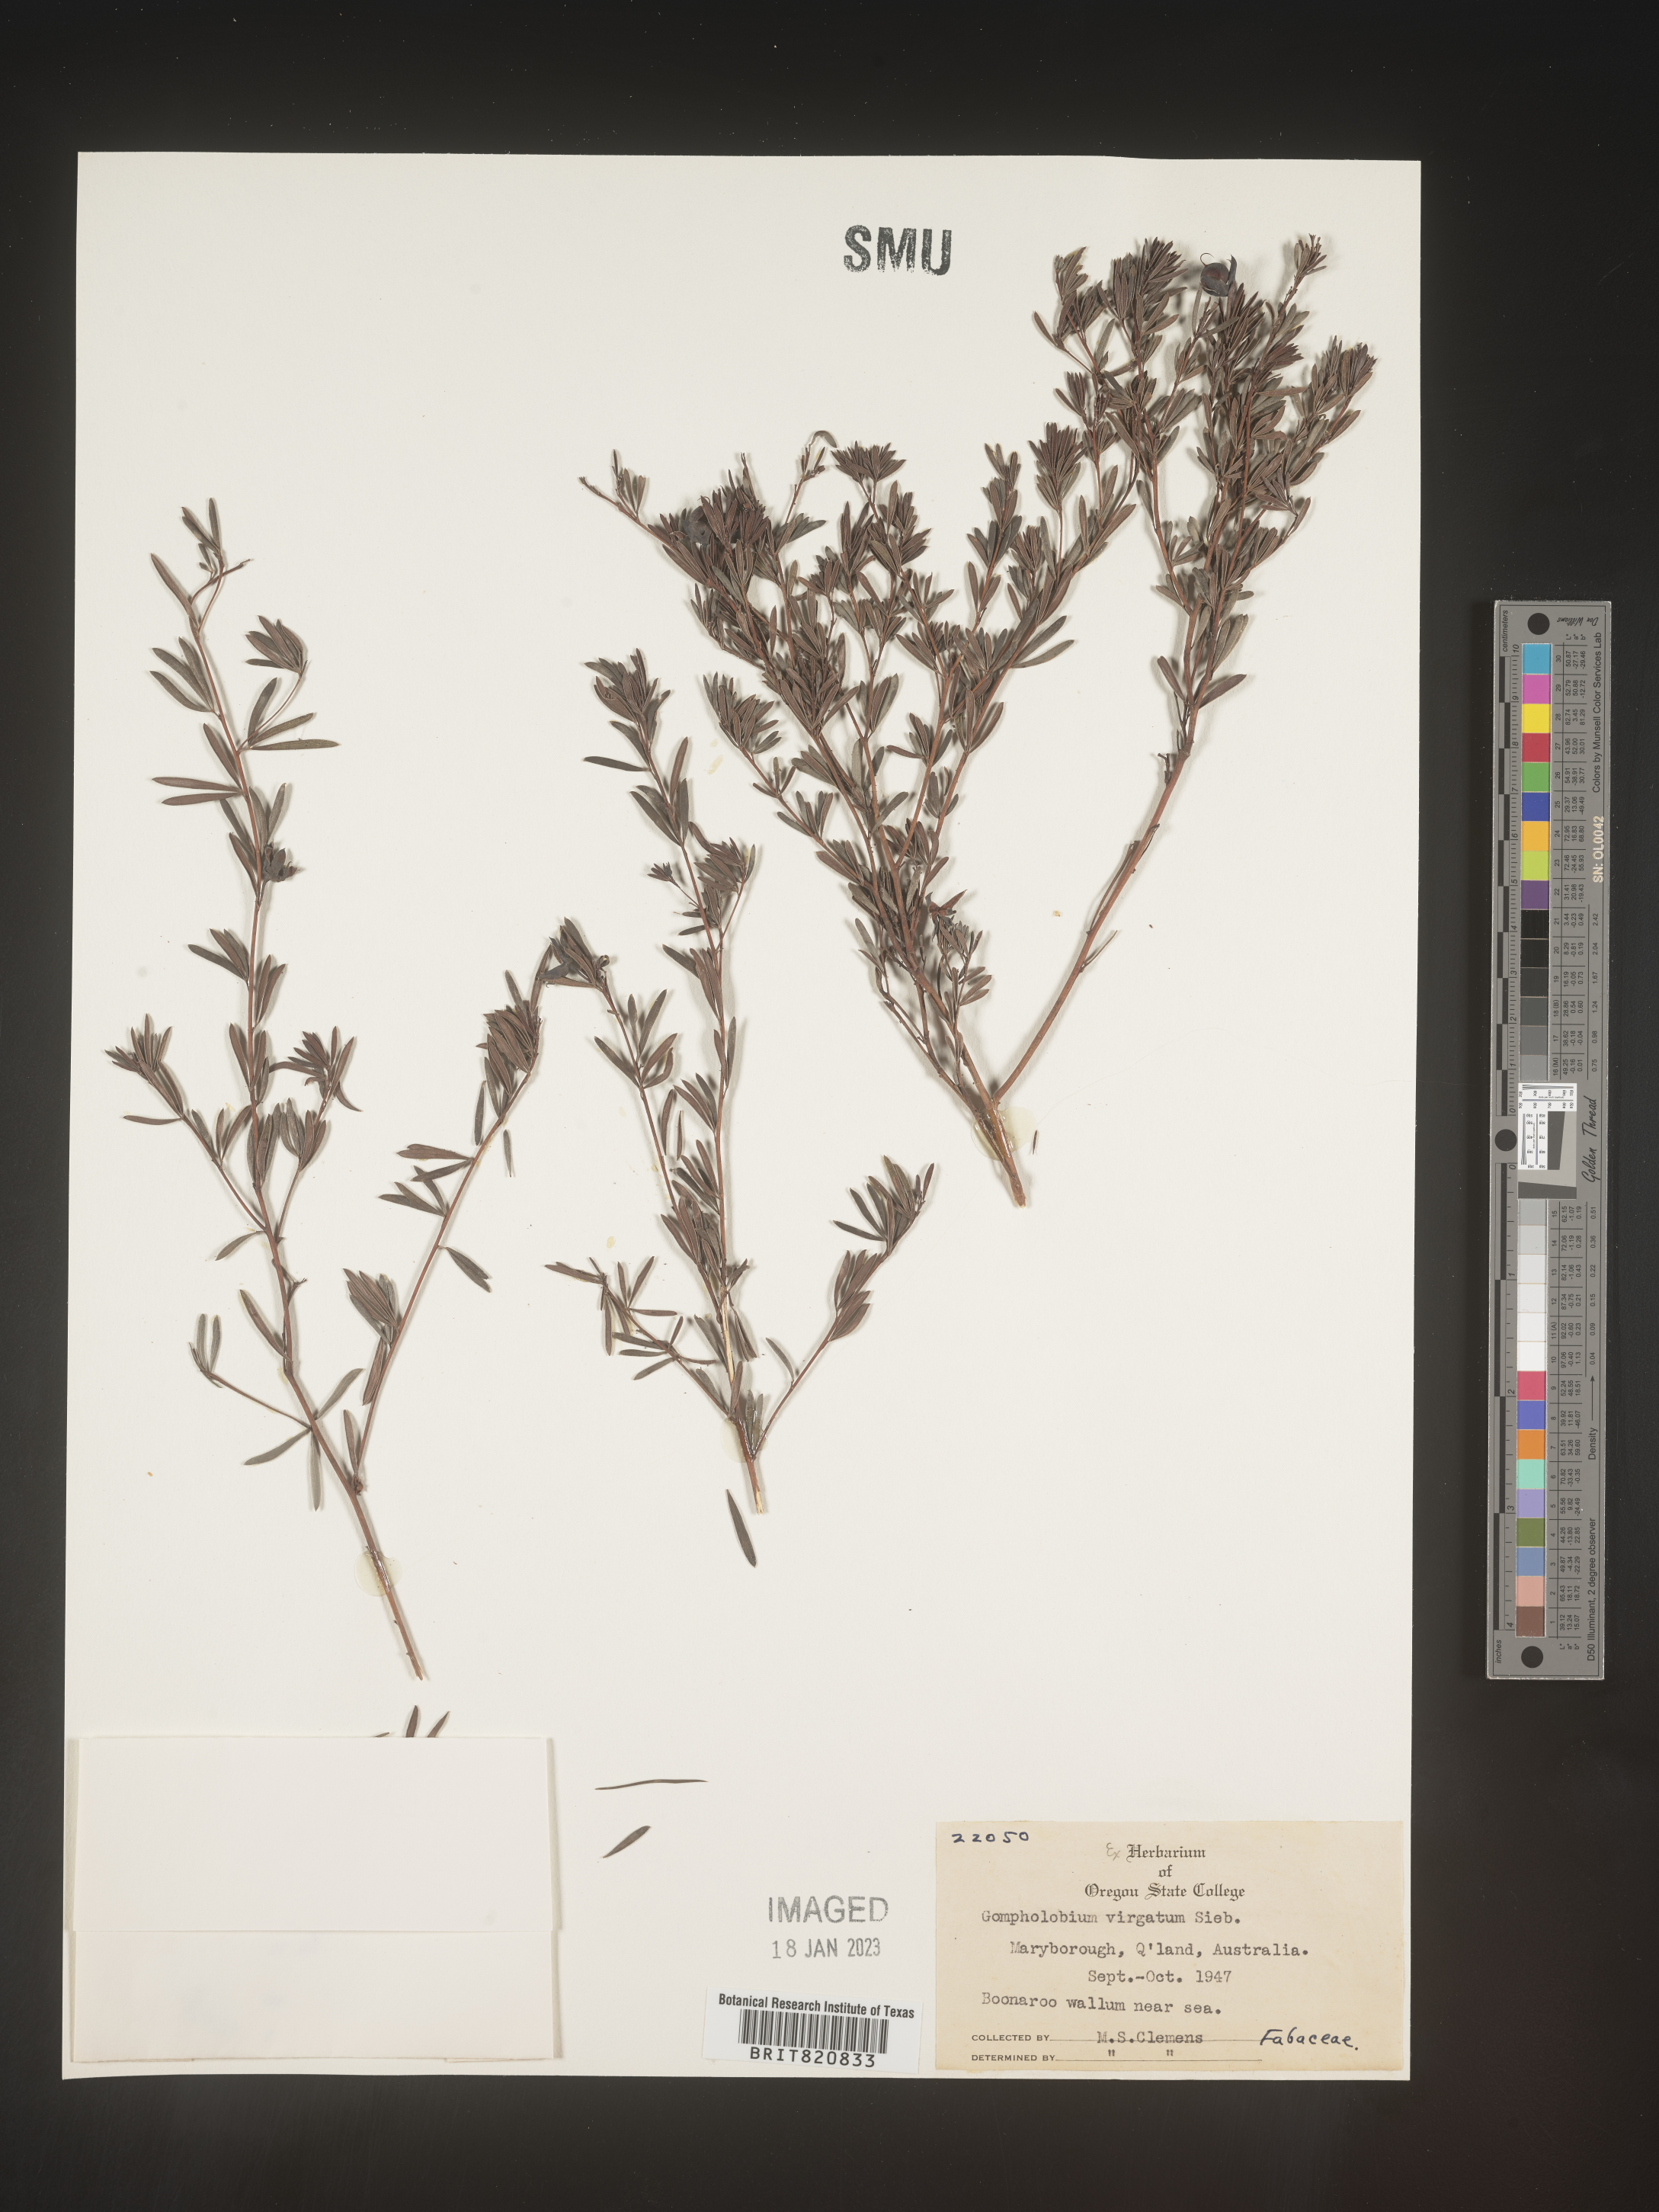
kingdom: Plantae
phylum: Tracheophyta
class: Magnoliopsida
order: Fabales
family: Fabaceae
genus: Gompholobium
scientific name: Gompholobium
